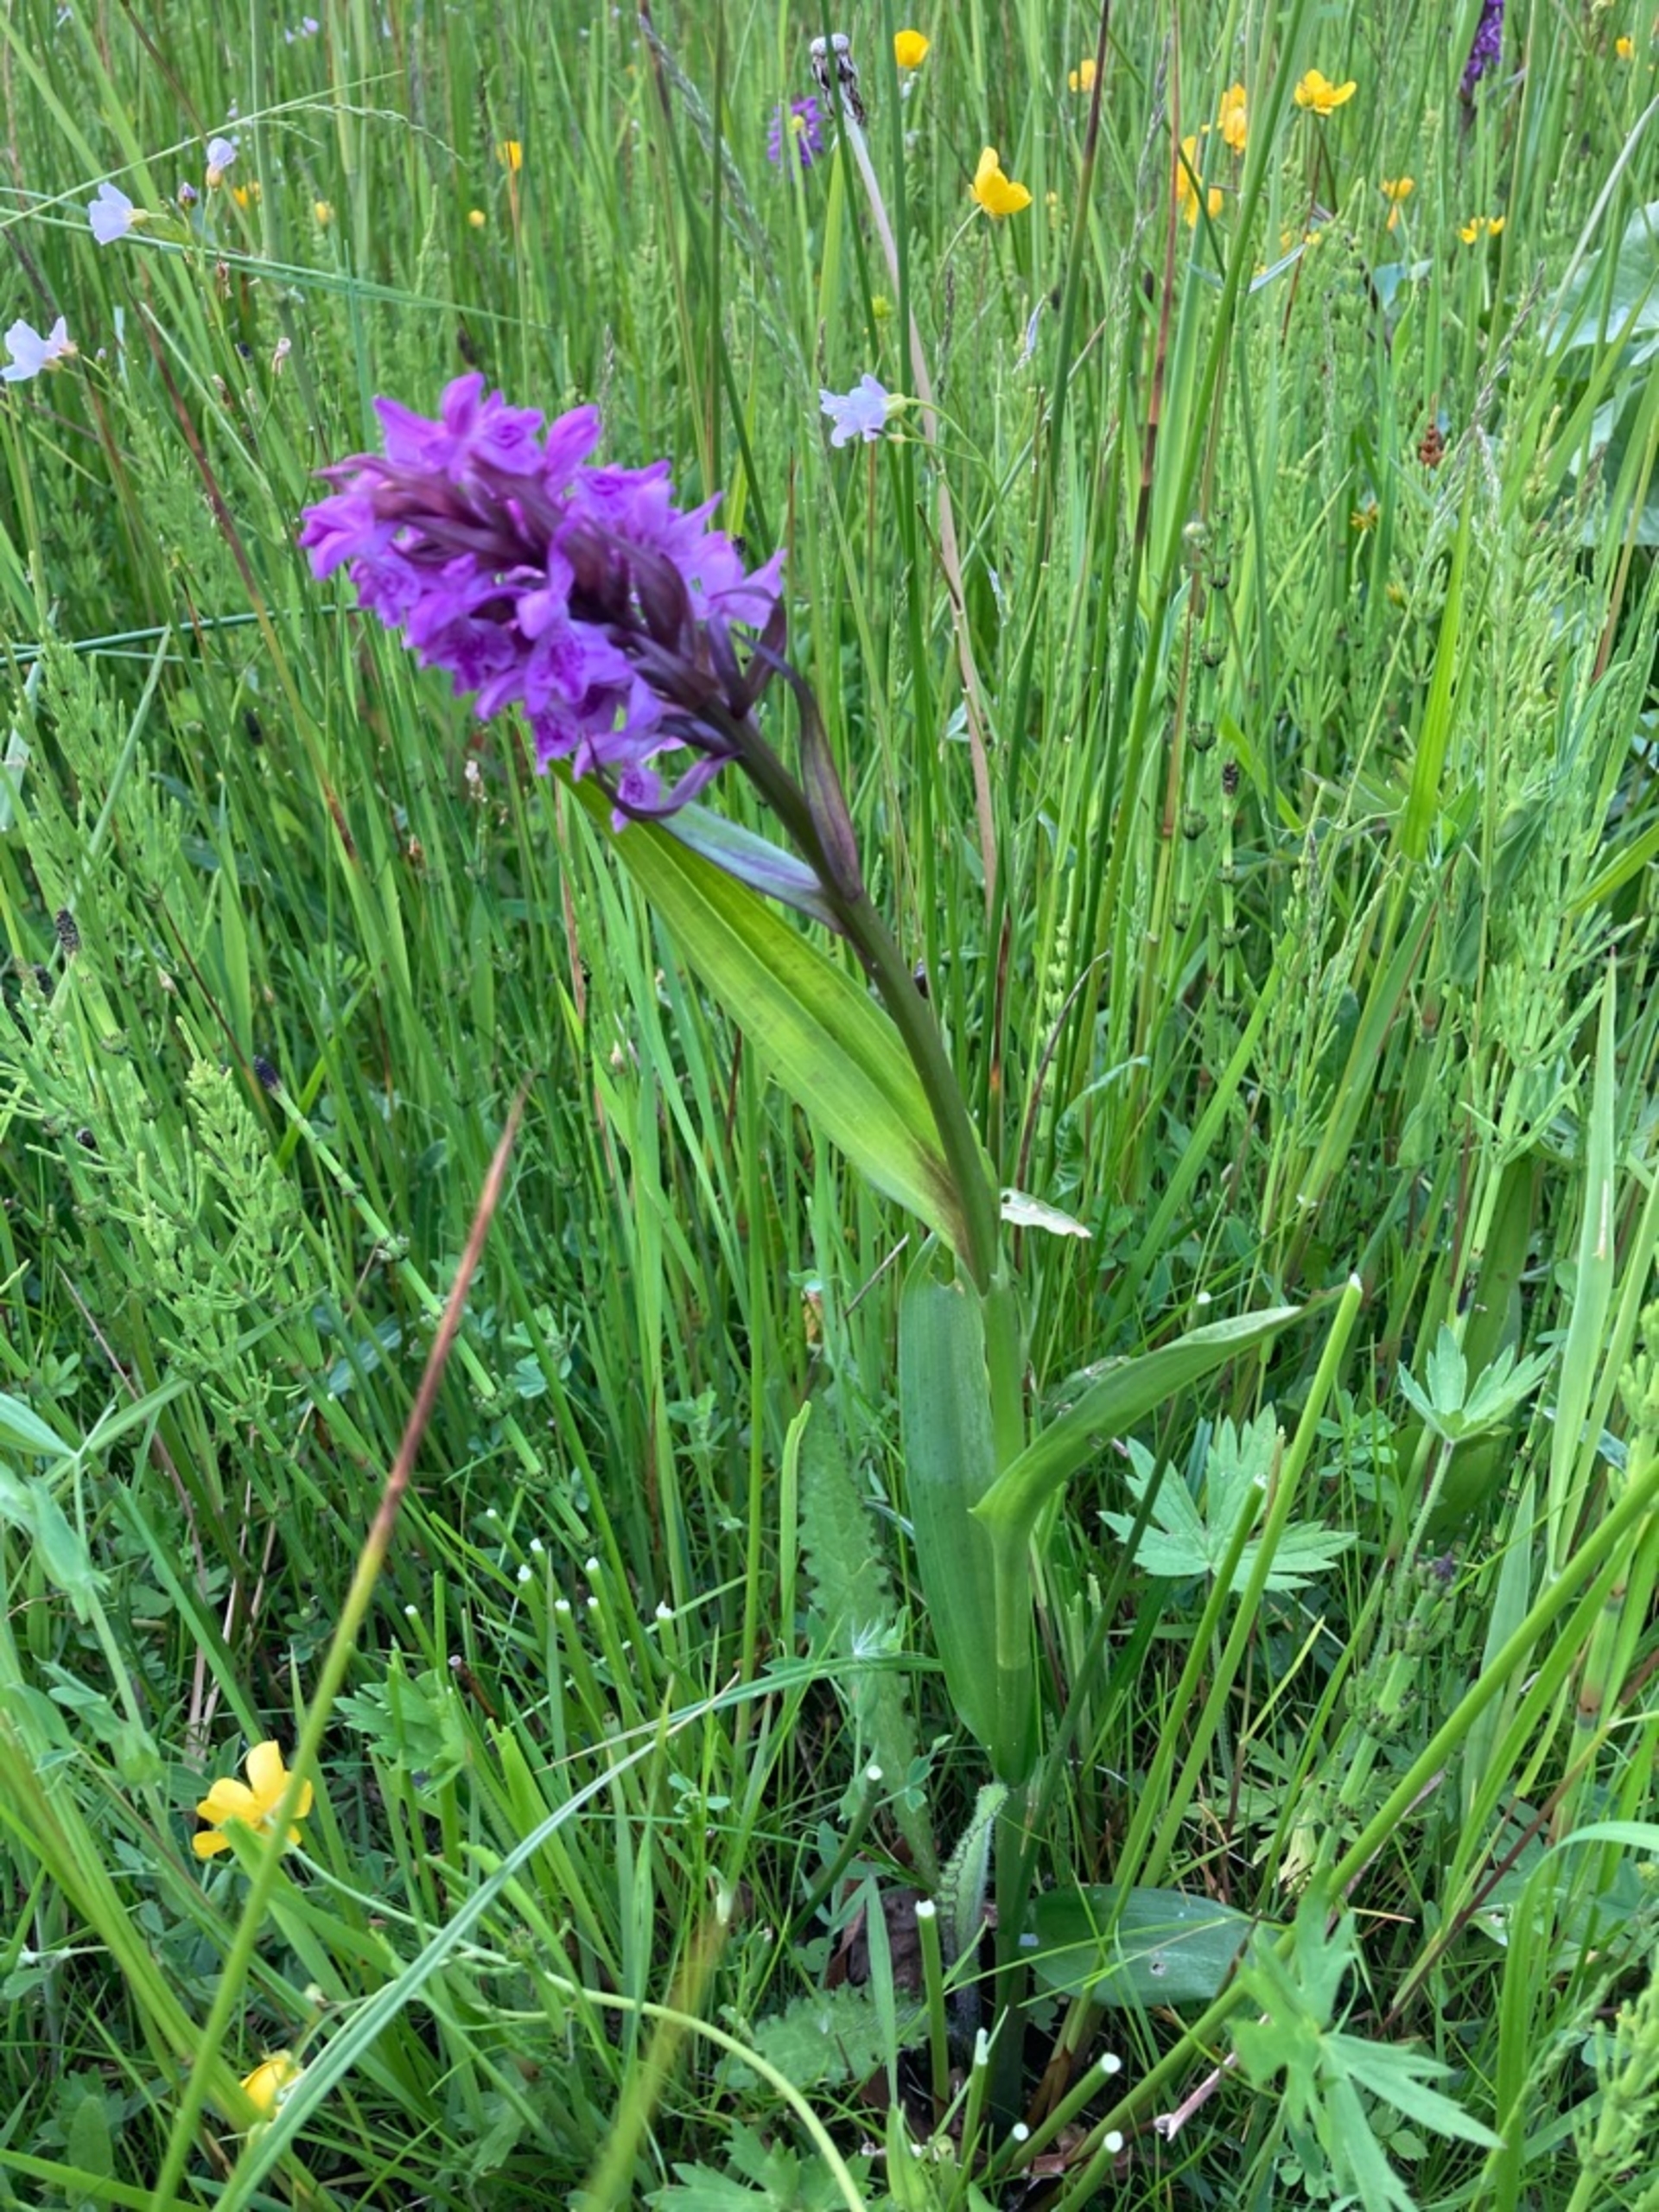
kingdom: Plantae
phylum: Tracheophyta
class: Liliopsida
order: Asparagales
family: Orchidaceae
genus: Dactylorhiza
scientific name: Dactylorhiza majalis
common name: Maj-gøgeurt
